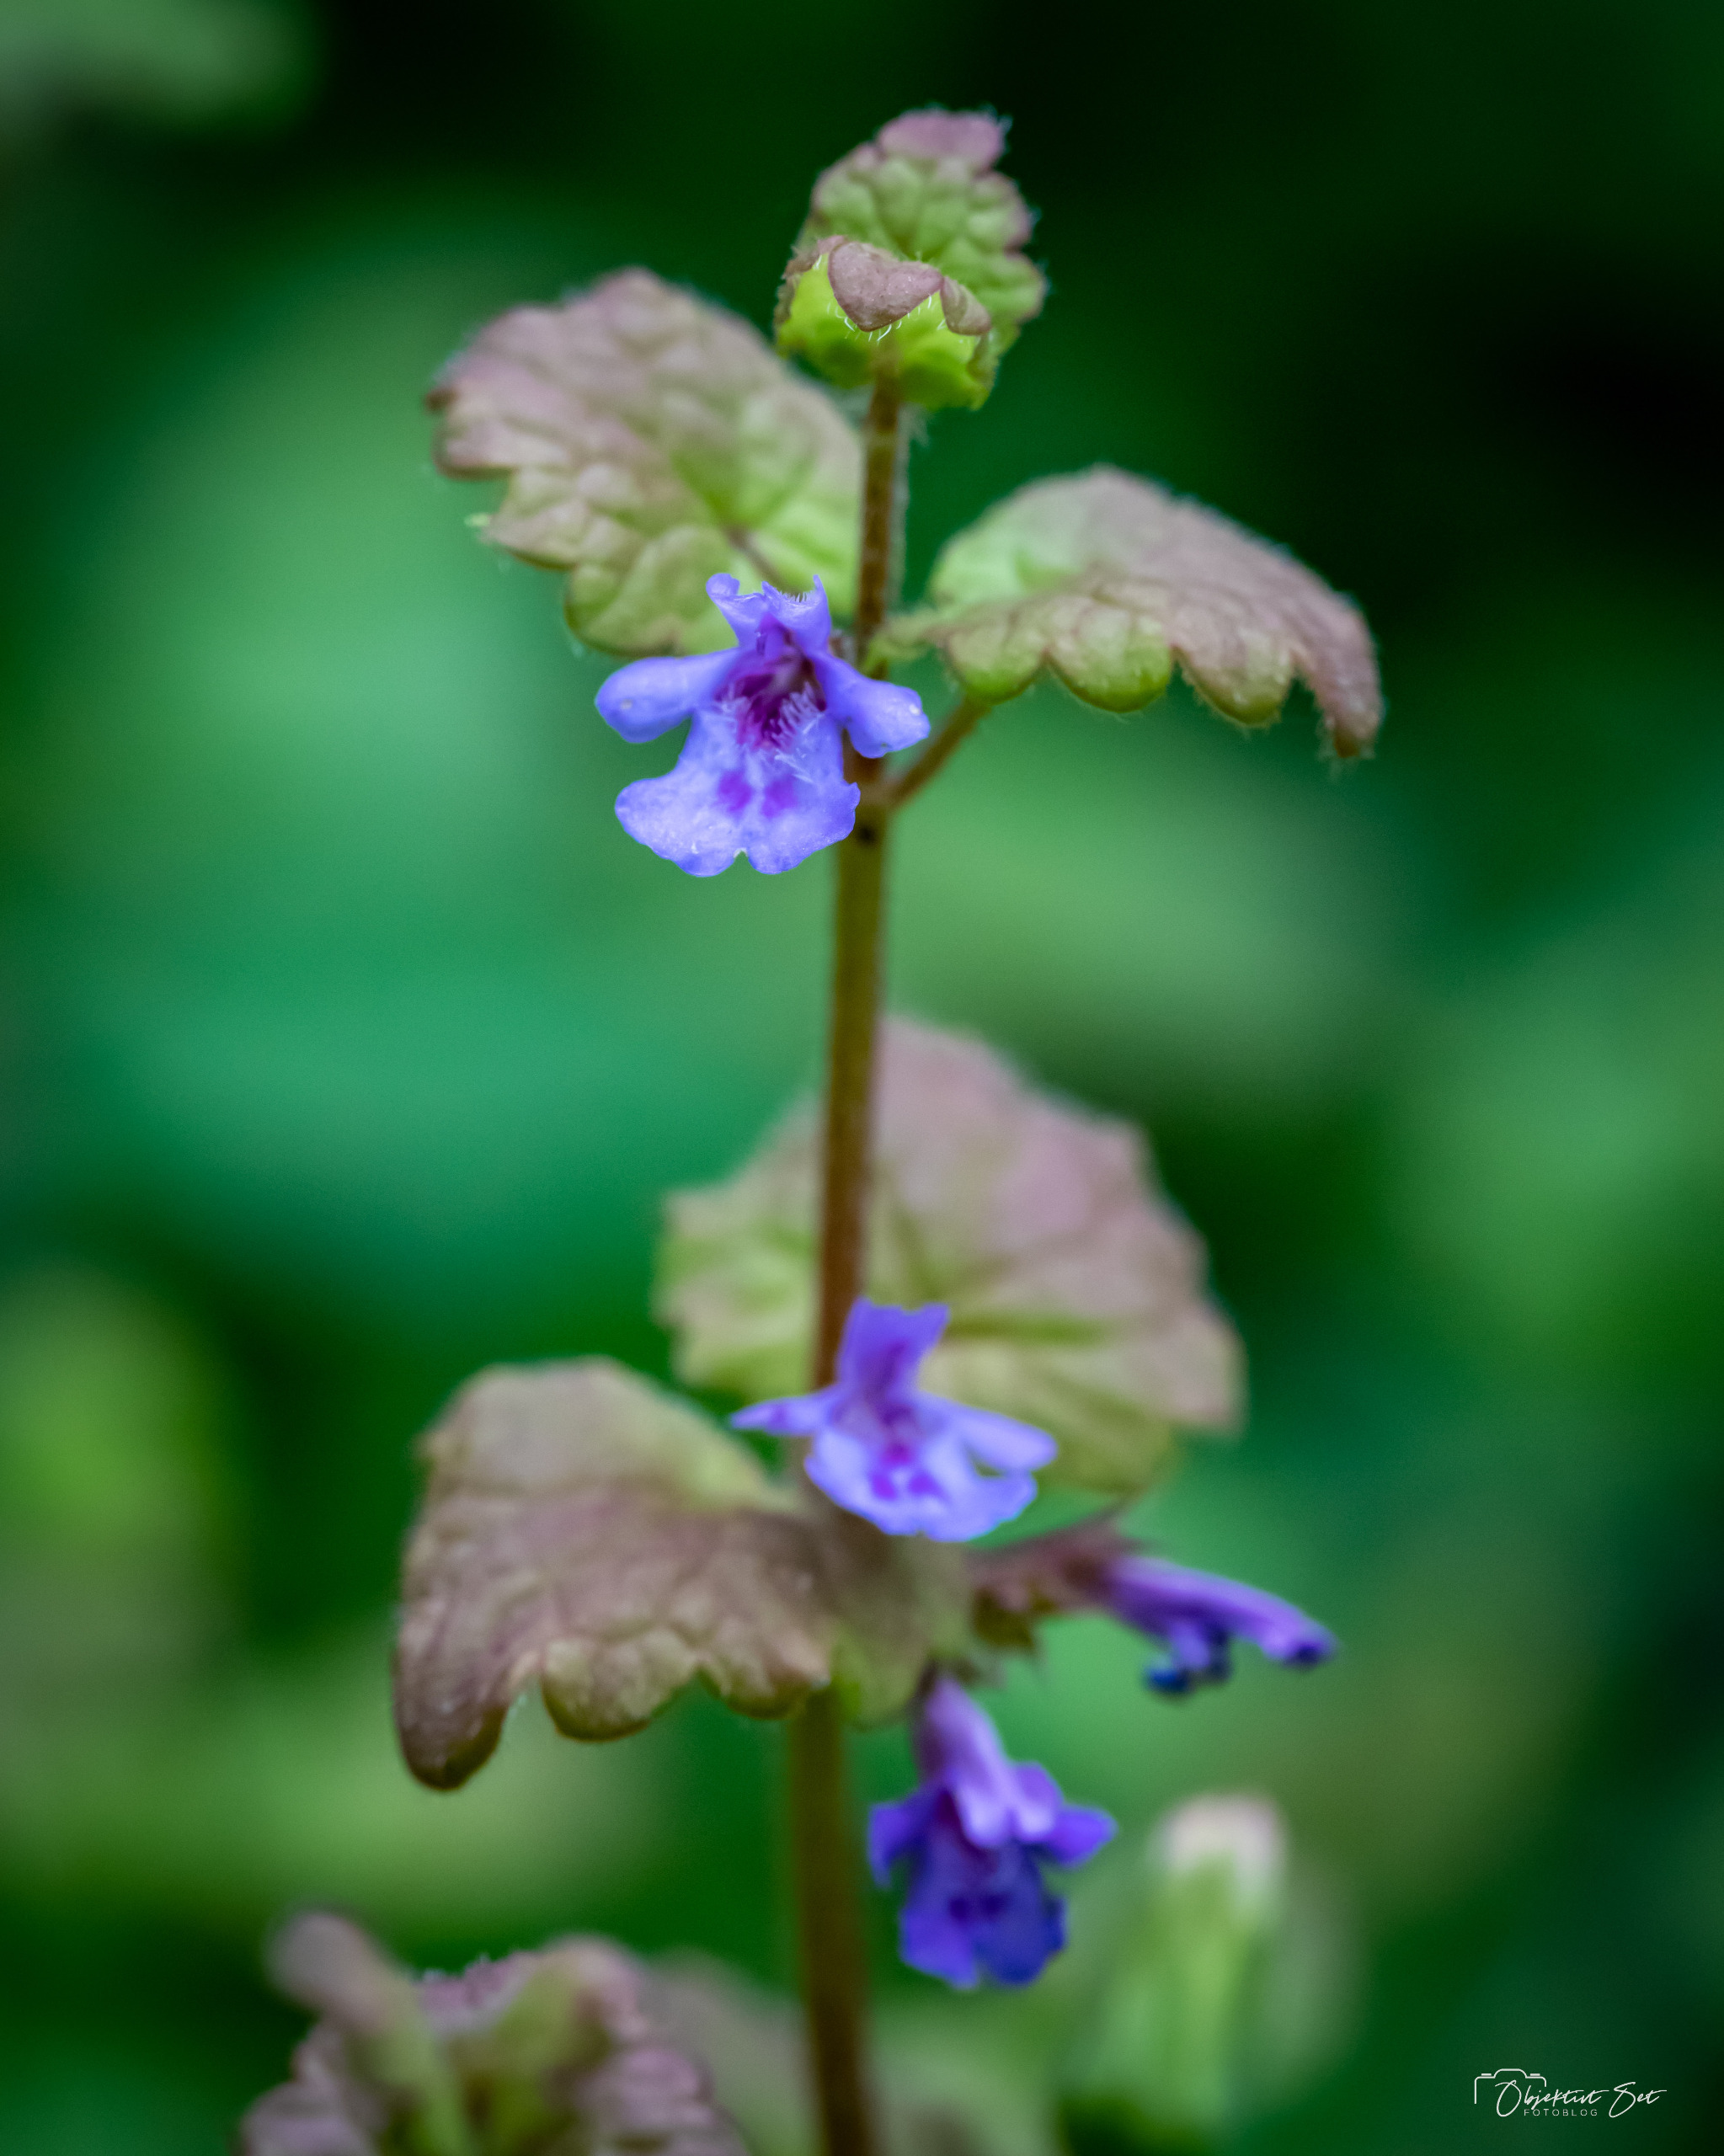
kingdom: Plantae
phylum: Tracheophyta
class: Magnoliopsida
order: Lamiales
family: Lamiaceae
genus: Glechoma
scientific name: Glechoma hederacea
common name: Korsknap
